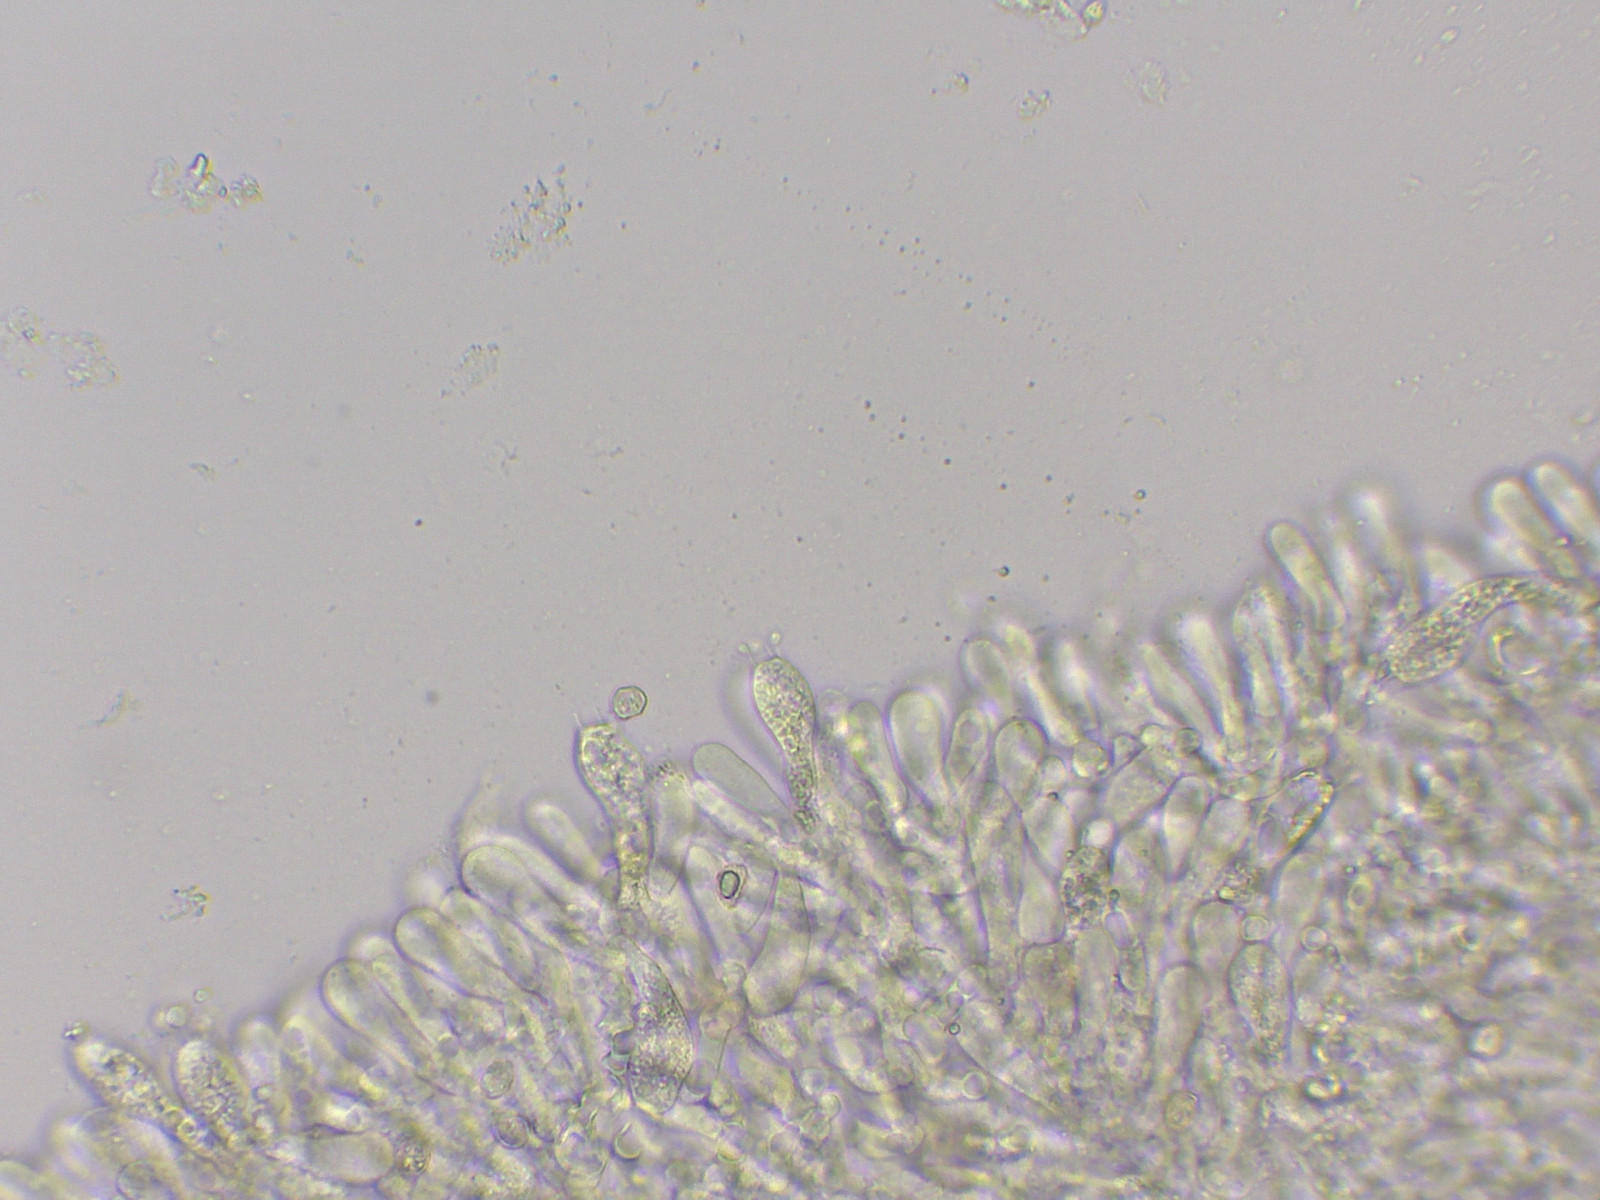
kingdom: Fungi
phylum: Basidiomycota
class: Agaricomycetes
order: Agaricales
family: Entolomataceae
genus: Entocybe
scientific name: Entocybe turbida
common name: plantage-rødblad
